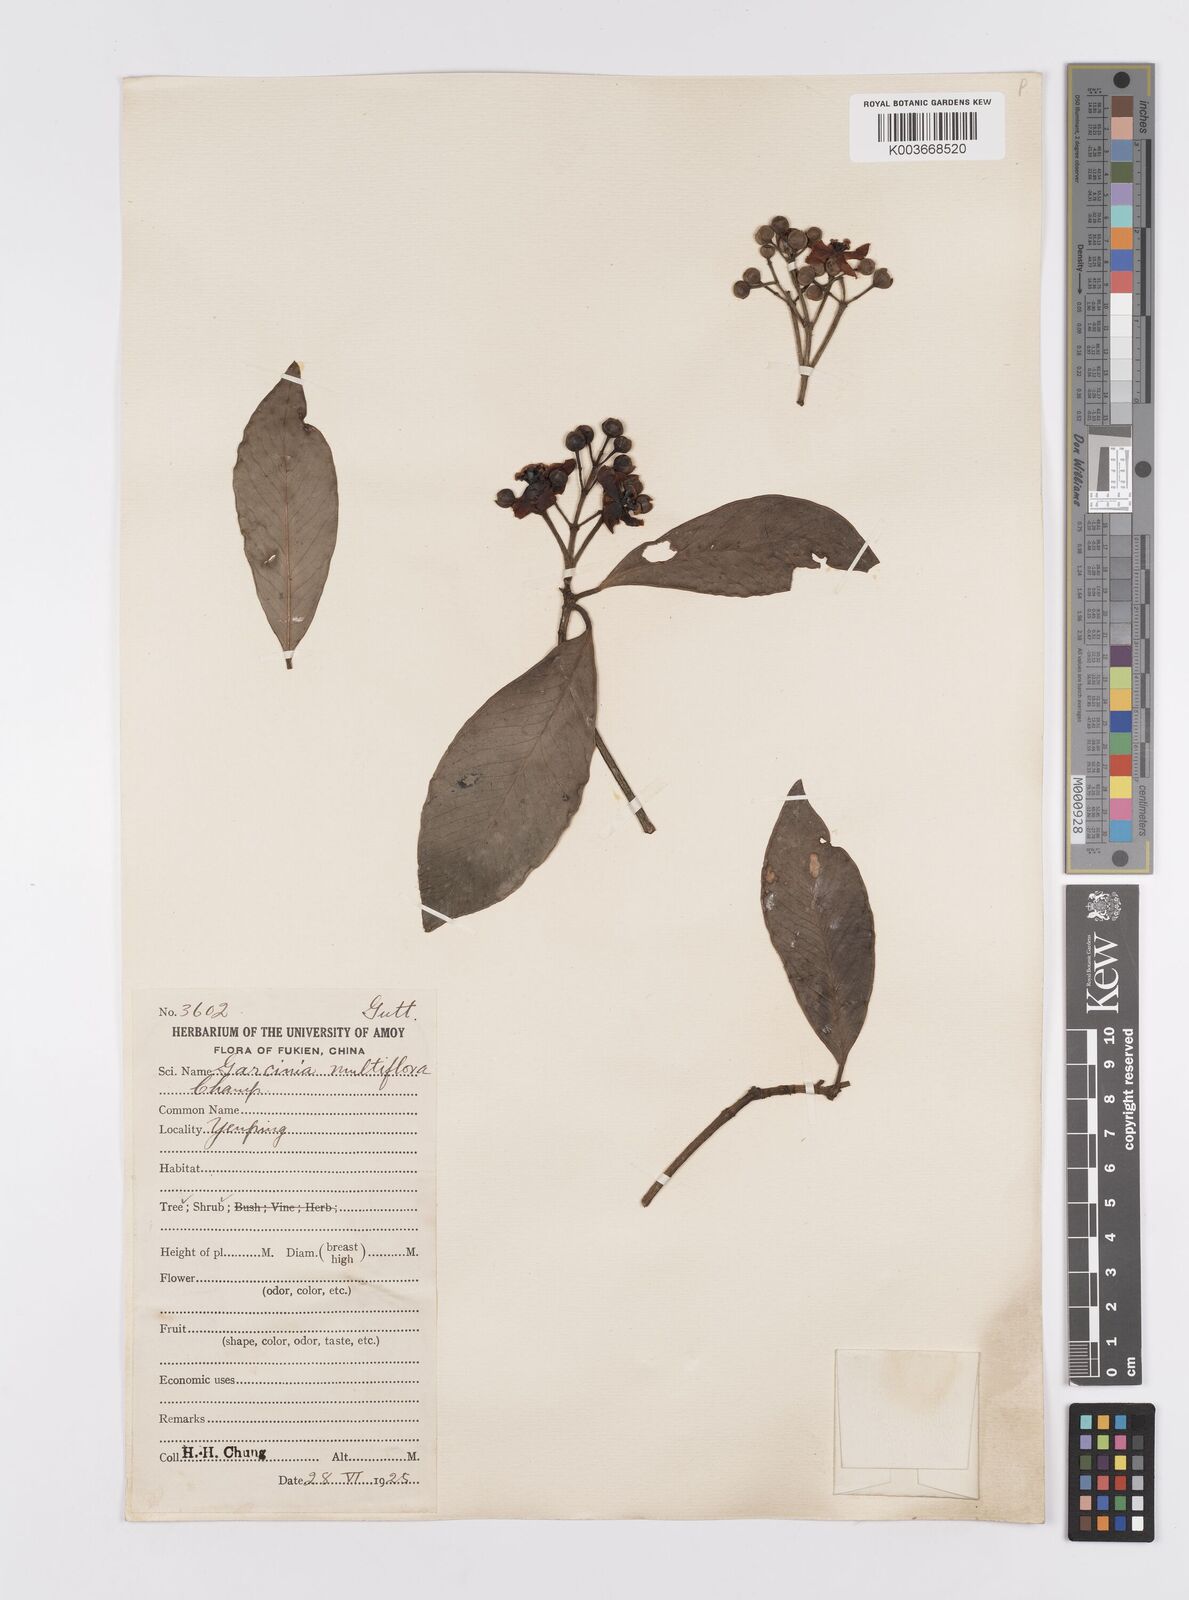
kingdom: Plantae
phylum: Tracheophyta
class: Magnoliopsida
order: Malpighiales
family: Clusiaceae
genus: Garcinia
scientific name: Garcinia multiflora
